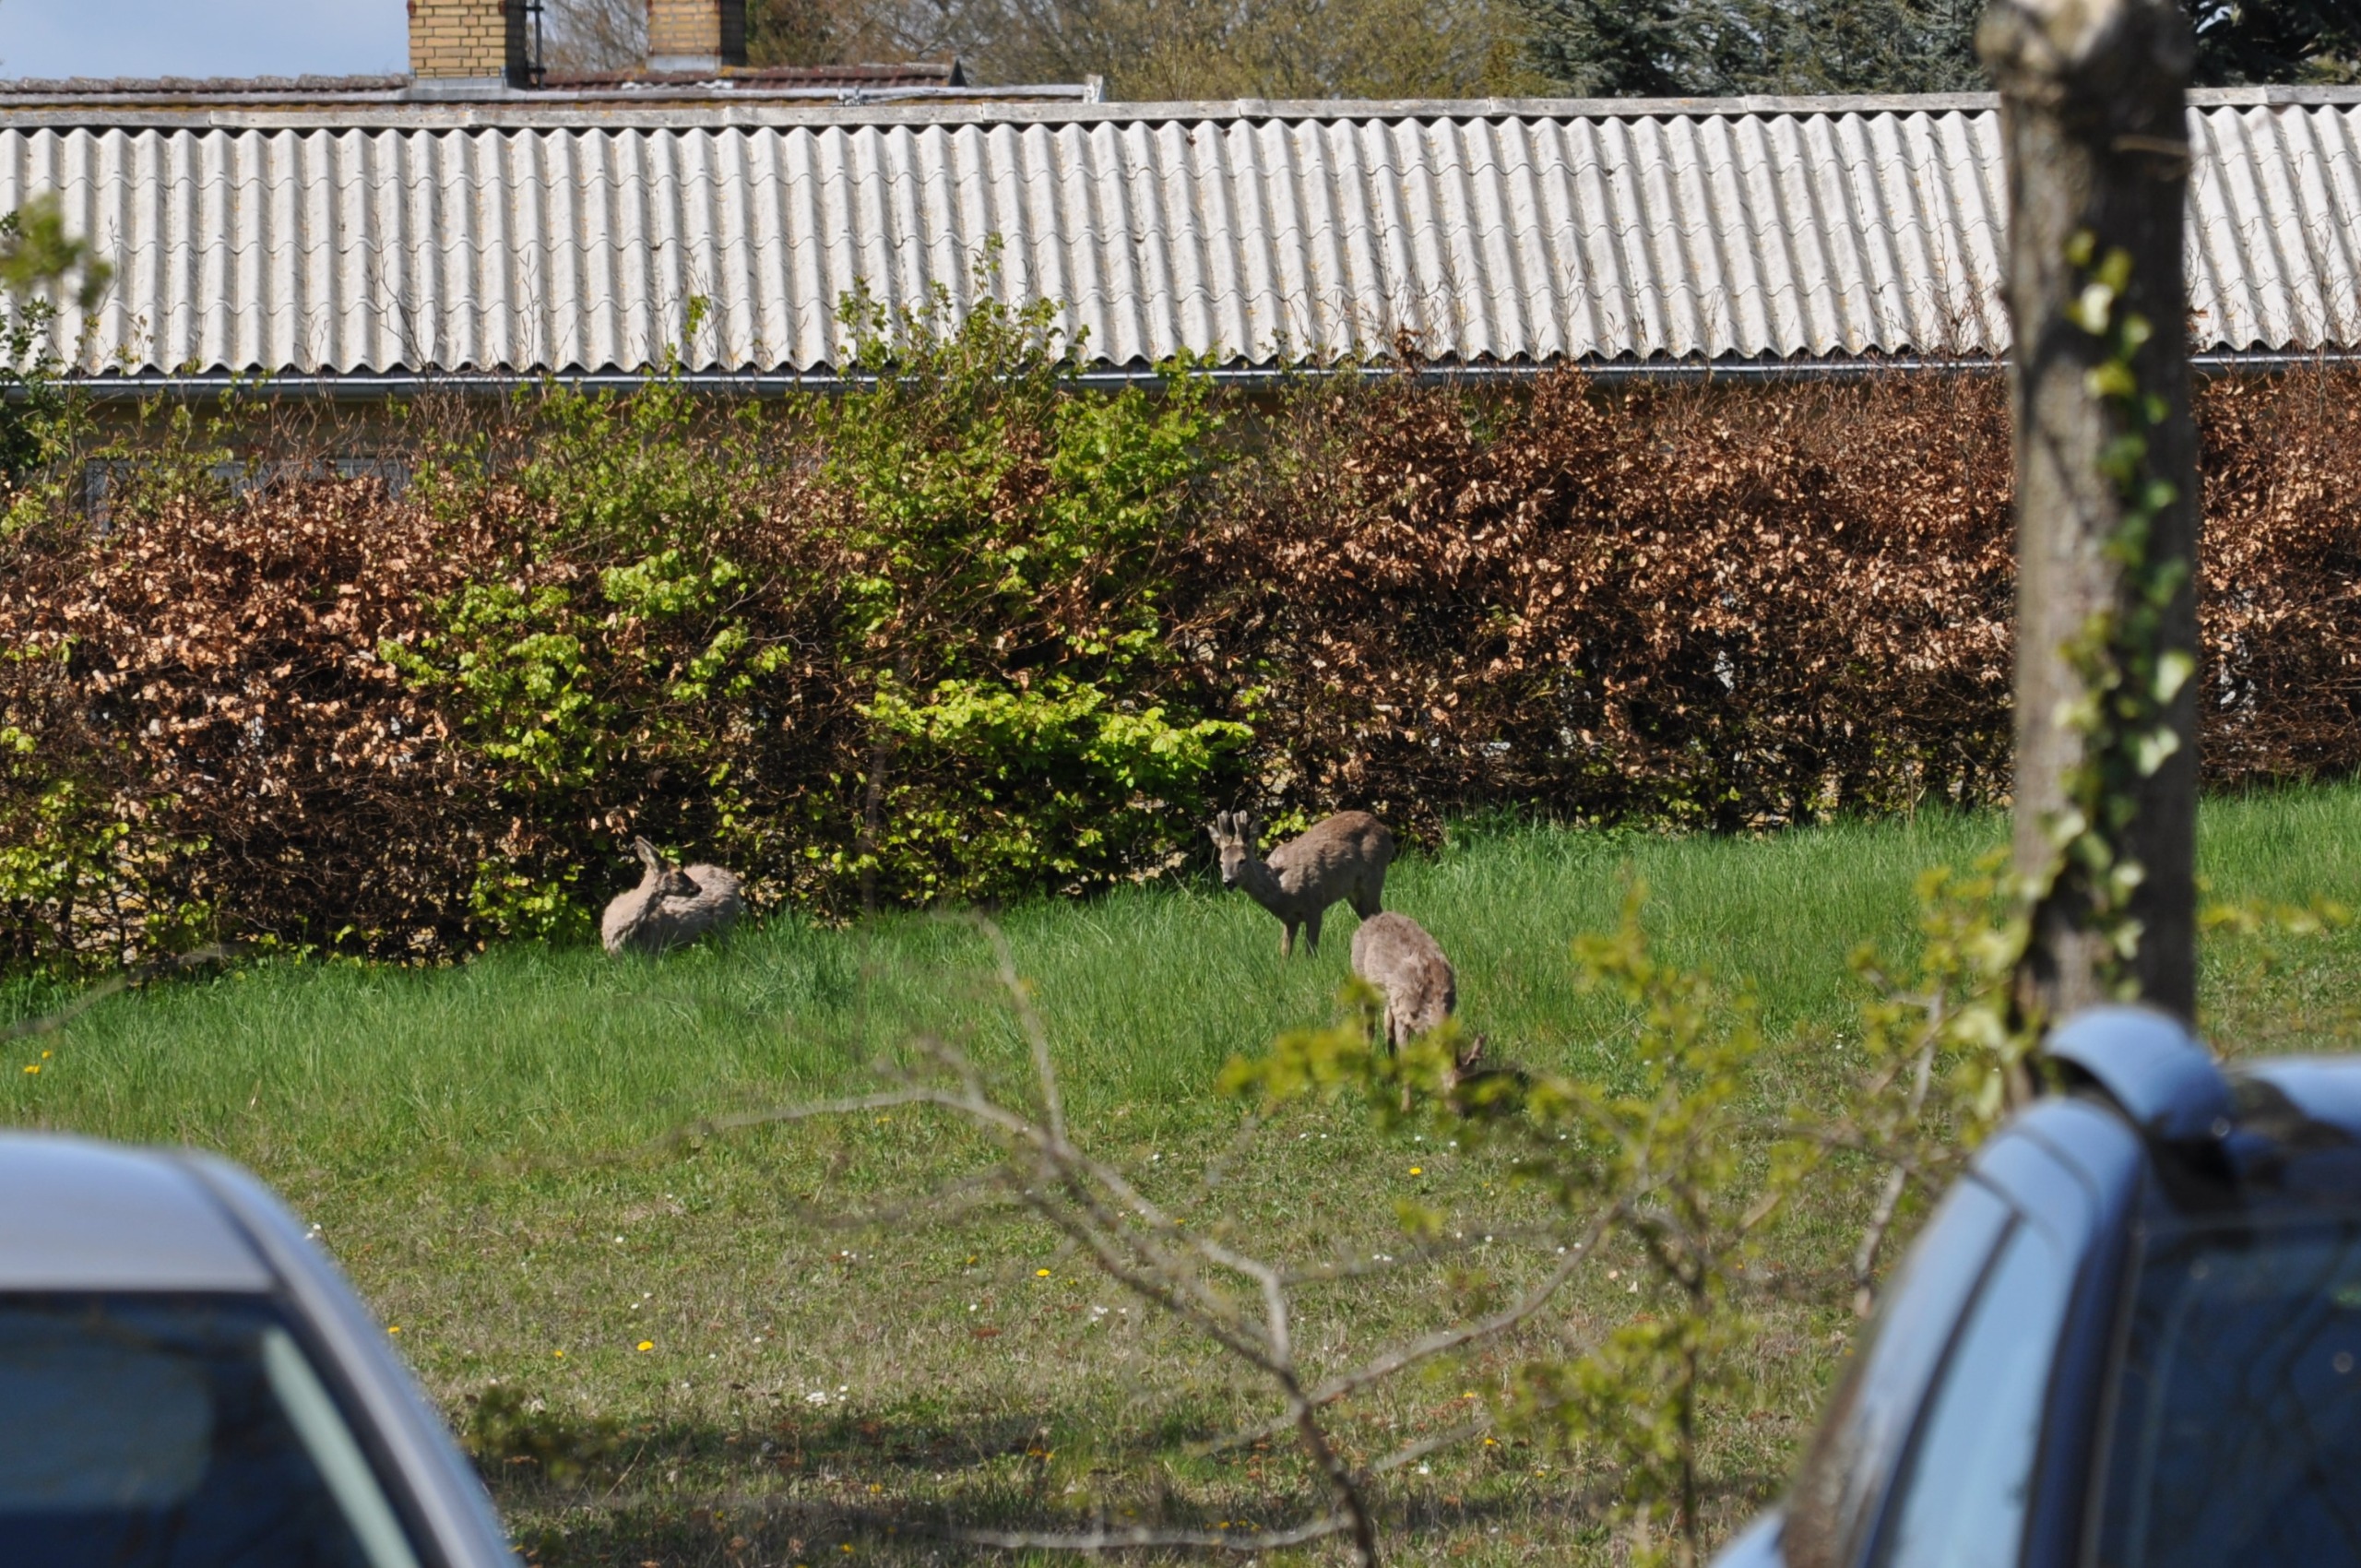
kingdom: Animalia
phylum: Chordata
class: Mammalia
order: Artiodactyla
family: Cervidae
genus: Capreolus
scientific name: Capreolus capreolus
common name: Rådyr
